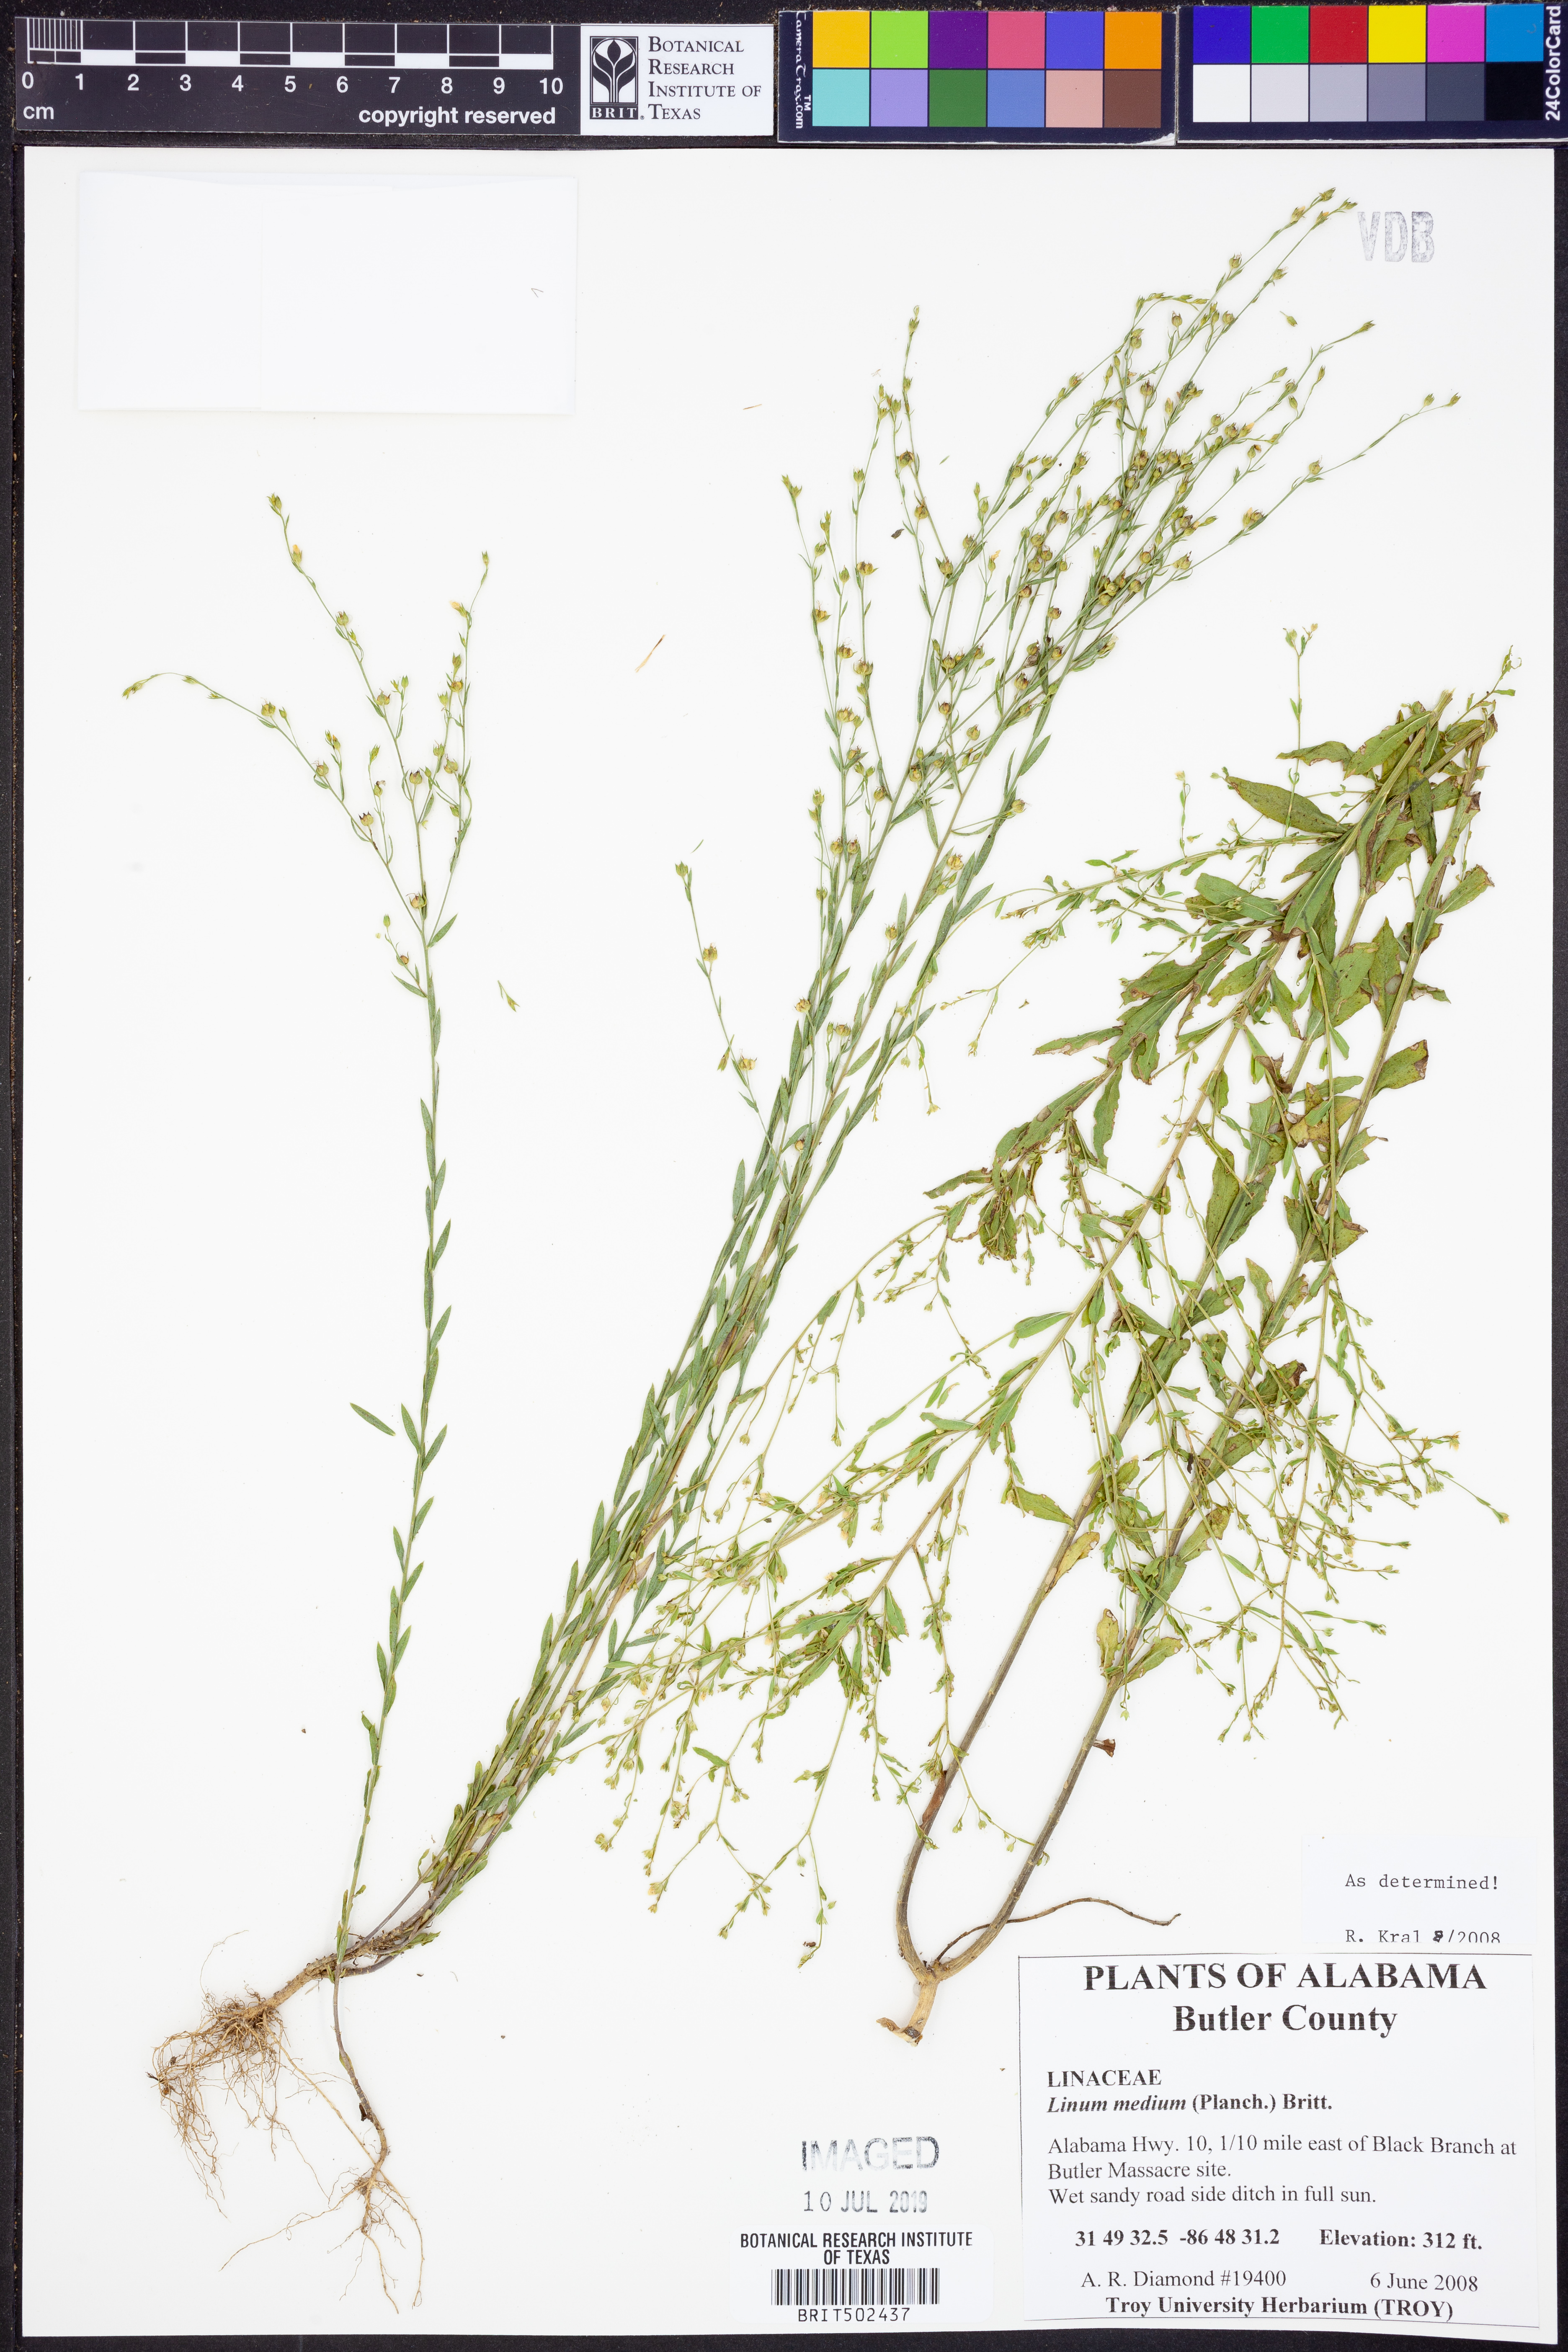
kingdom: Plantae
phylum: Tracheophyta
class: Magnoliopsida
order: Malpighiales
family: Linaceae
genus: Linum
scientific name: Linum medium
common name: Stiff yellow flax
